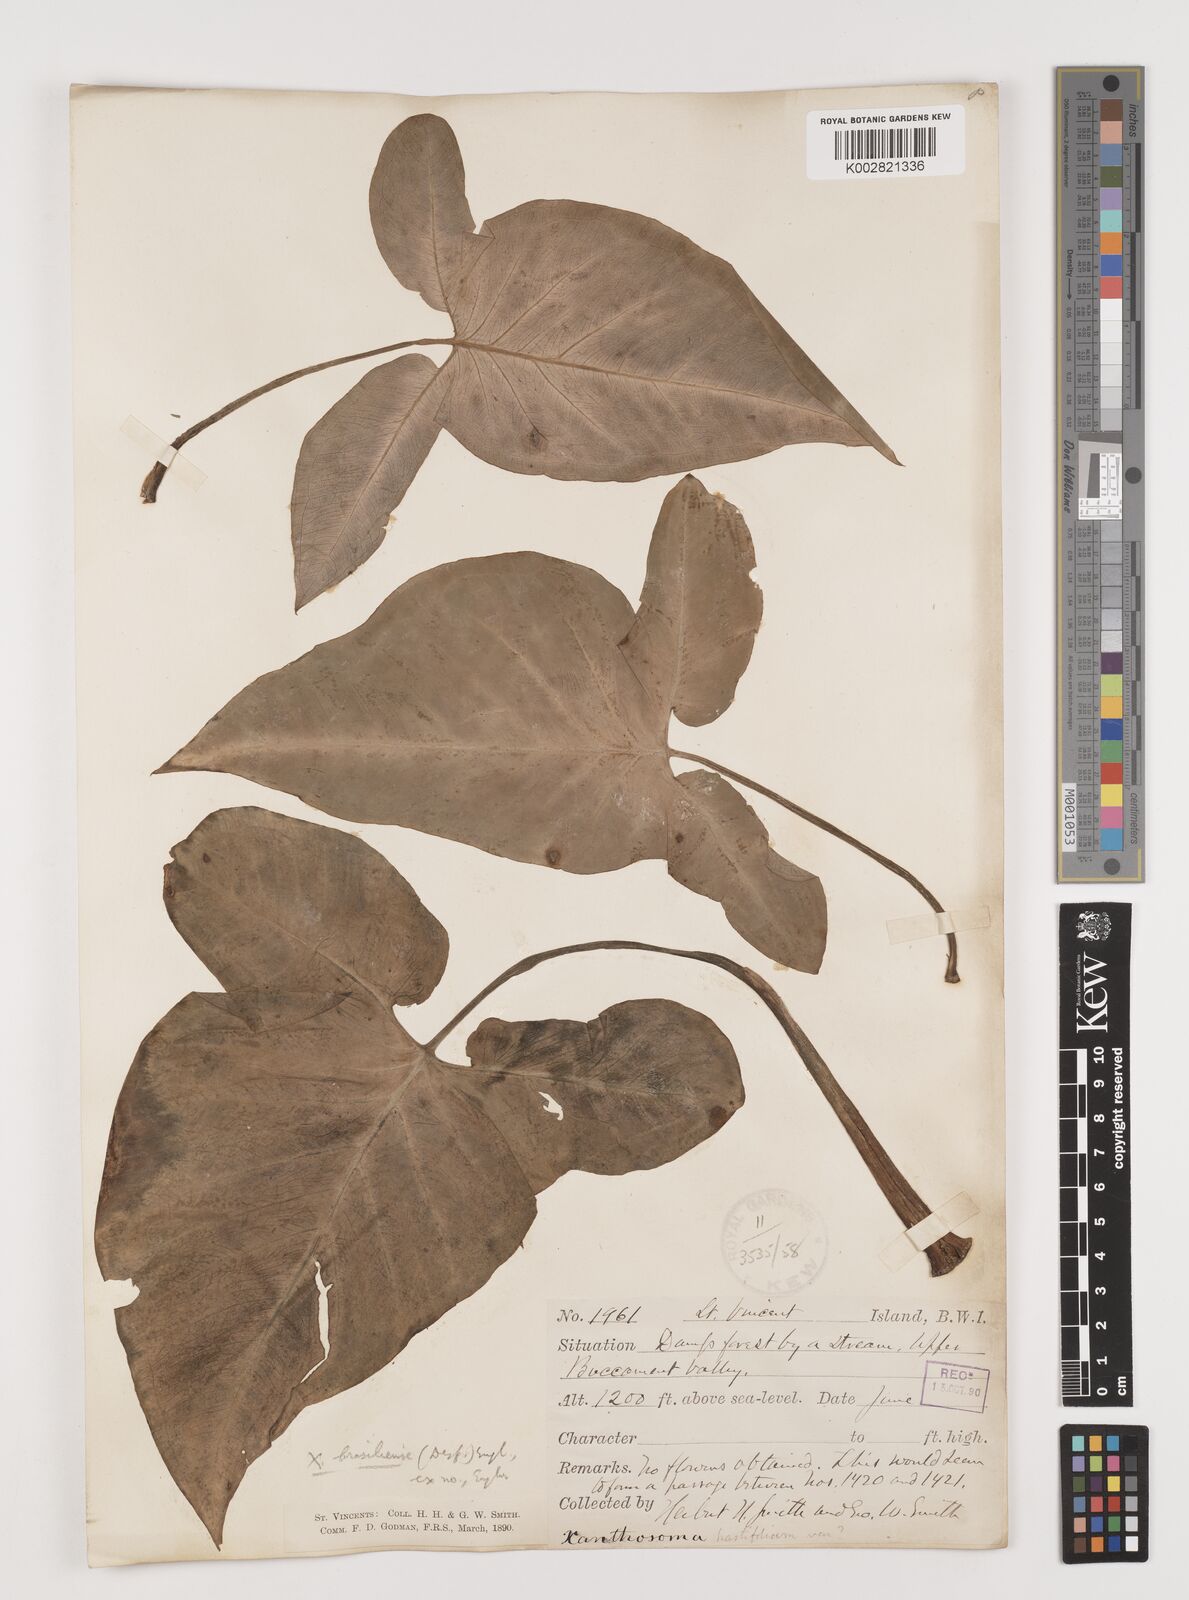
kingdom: Plantae
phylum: Tracheophyta
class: Liliopsida
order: Alismatales
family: Araceae
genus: Xanthosoma
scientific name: Xanthosoma brasiliense
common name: Tahitian-spinach
